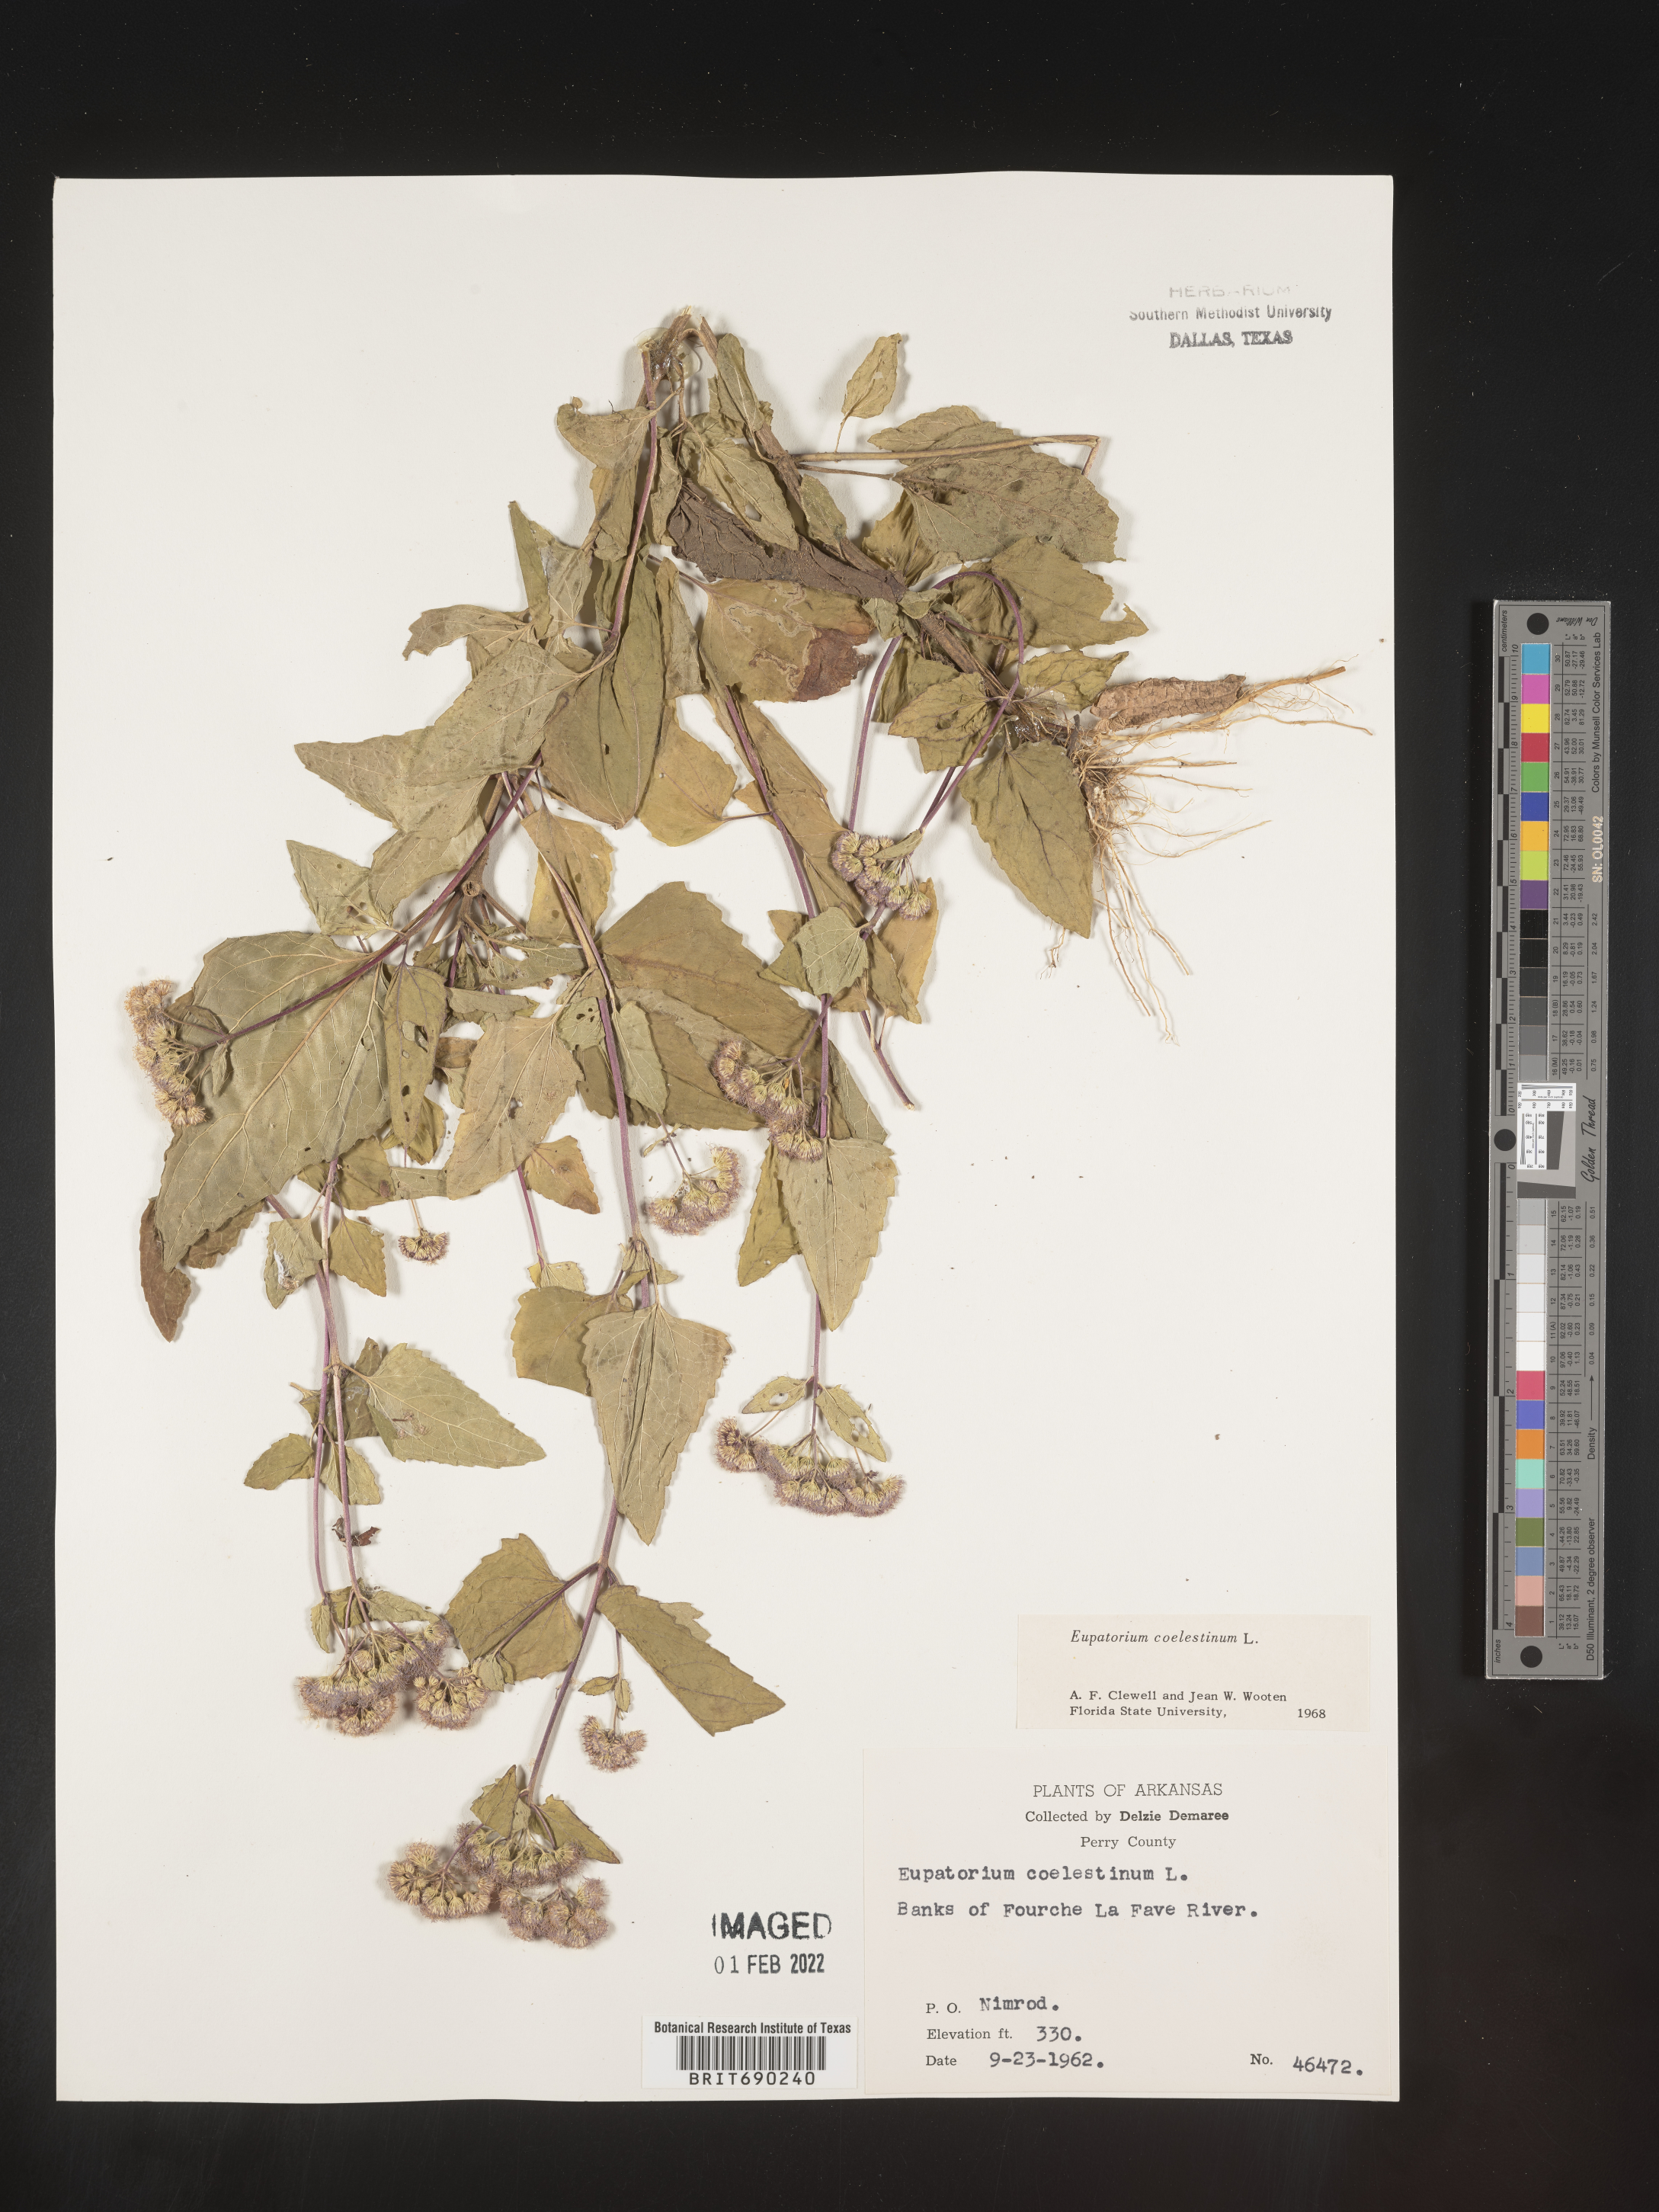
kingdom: Plantae
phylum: Tracheophyta
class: Magnoliopsida
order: Asterales
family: Asteraceae
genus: Conoclinium
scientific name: Conoclinium coelestinum
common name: Blue mistflower
